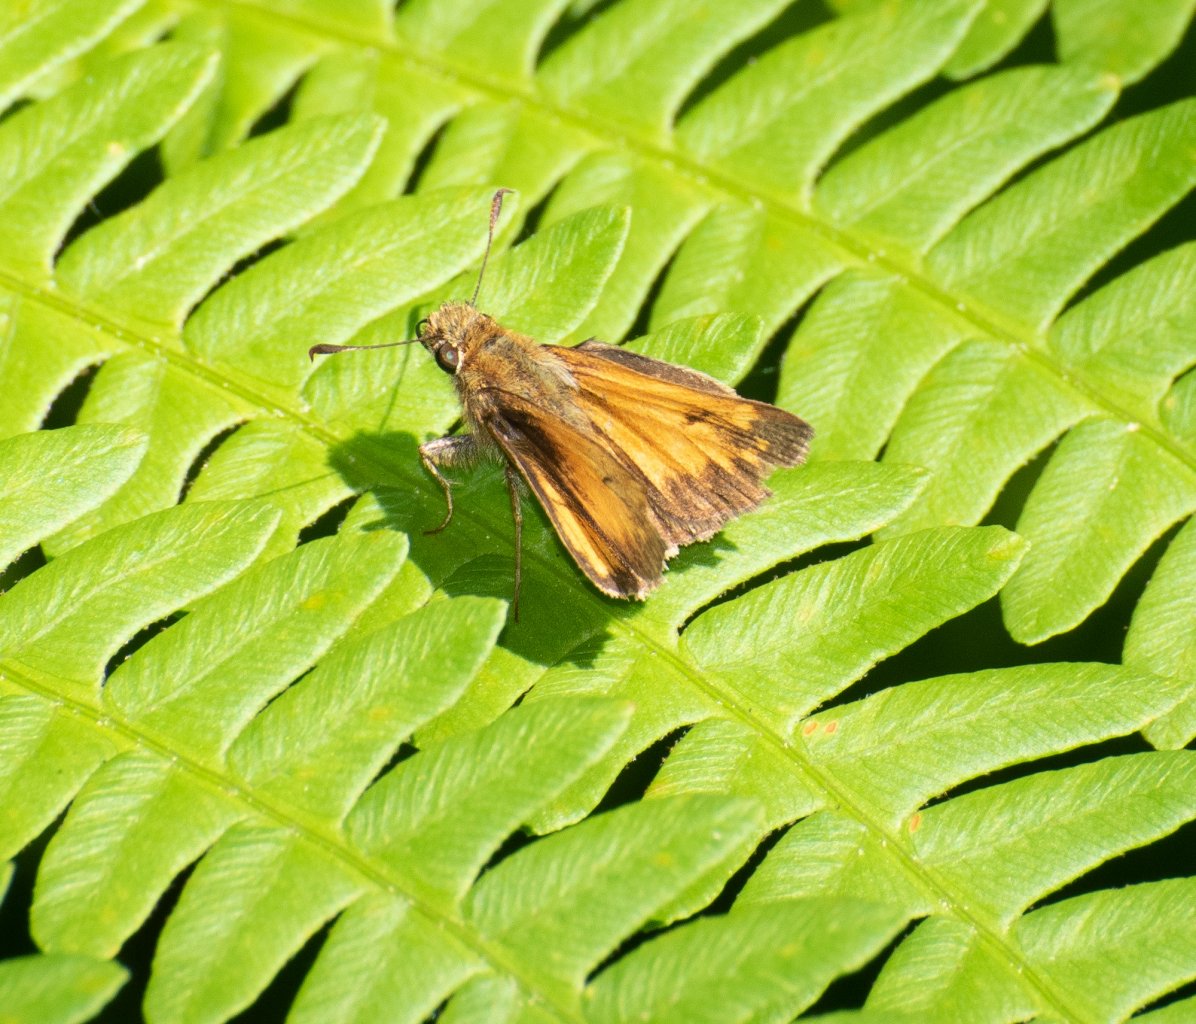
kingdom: Animalia
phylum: Arthropoda
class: Insecta
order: Lepidoptera
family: Hesperiidae
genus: Lon
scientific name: Lon hobomok
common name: Hobomok Skipper
